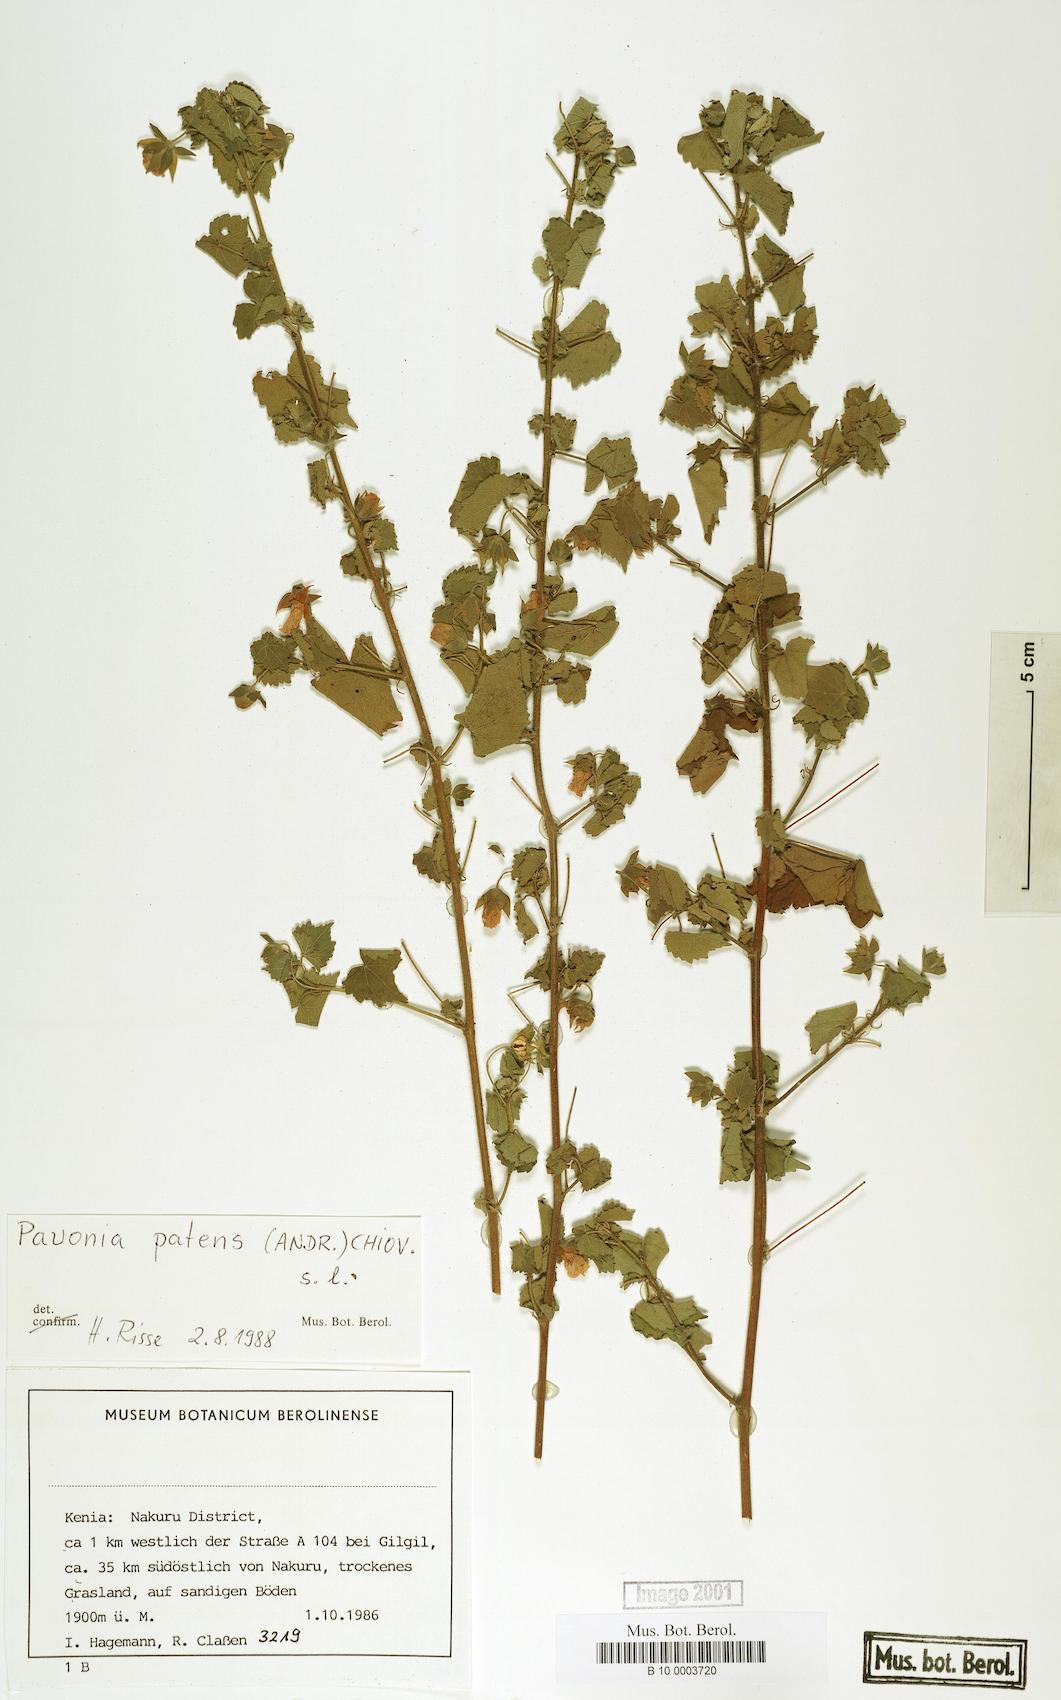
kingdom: Plantae
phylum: Tracheophyta
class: Magnoliopsida
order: Malvales
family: Malvaceae
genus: Abutilon
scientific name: Abutilon mauritianum
